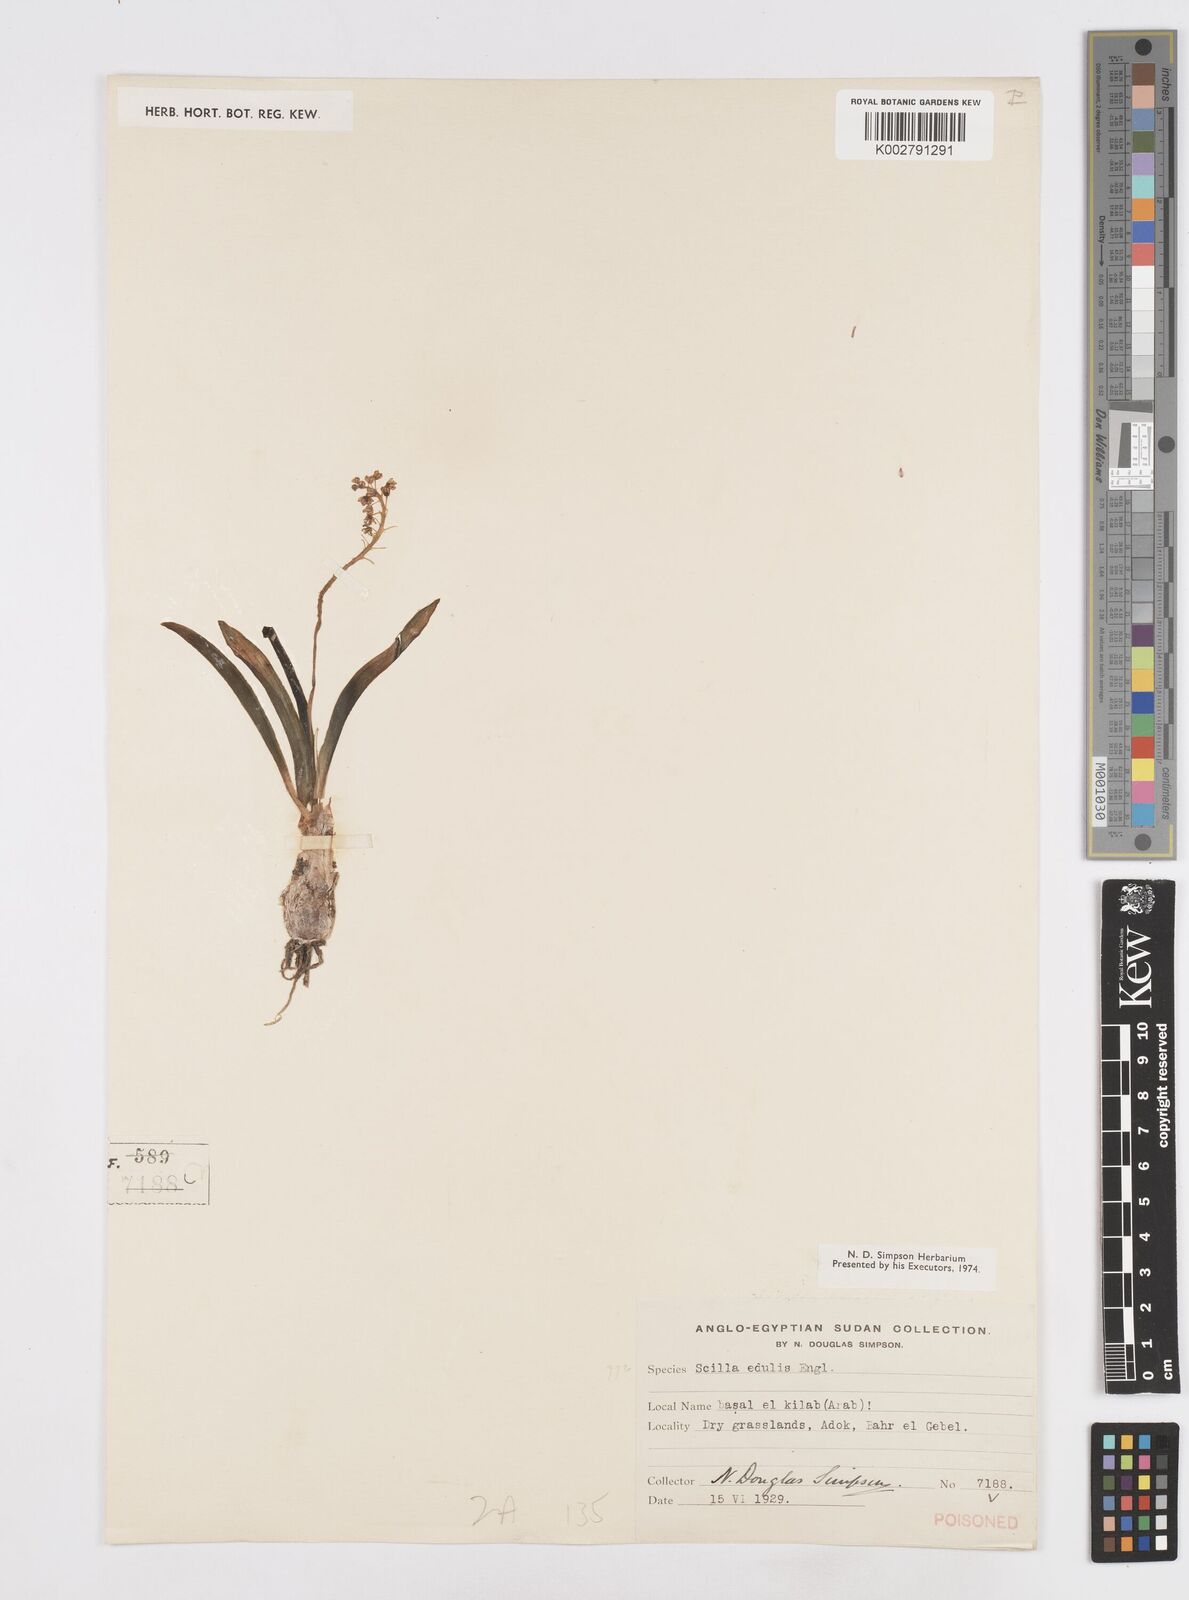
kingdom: Plantae
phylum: Tracheophyta
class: Liliopsida
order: Asparagales
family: Asparagaceae
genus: Ledebouria
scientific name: Ledebouria edulis
